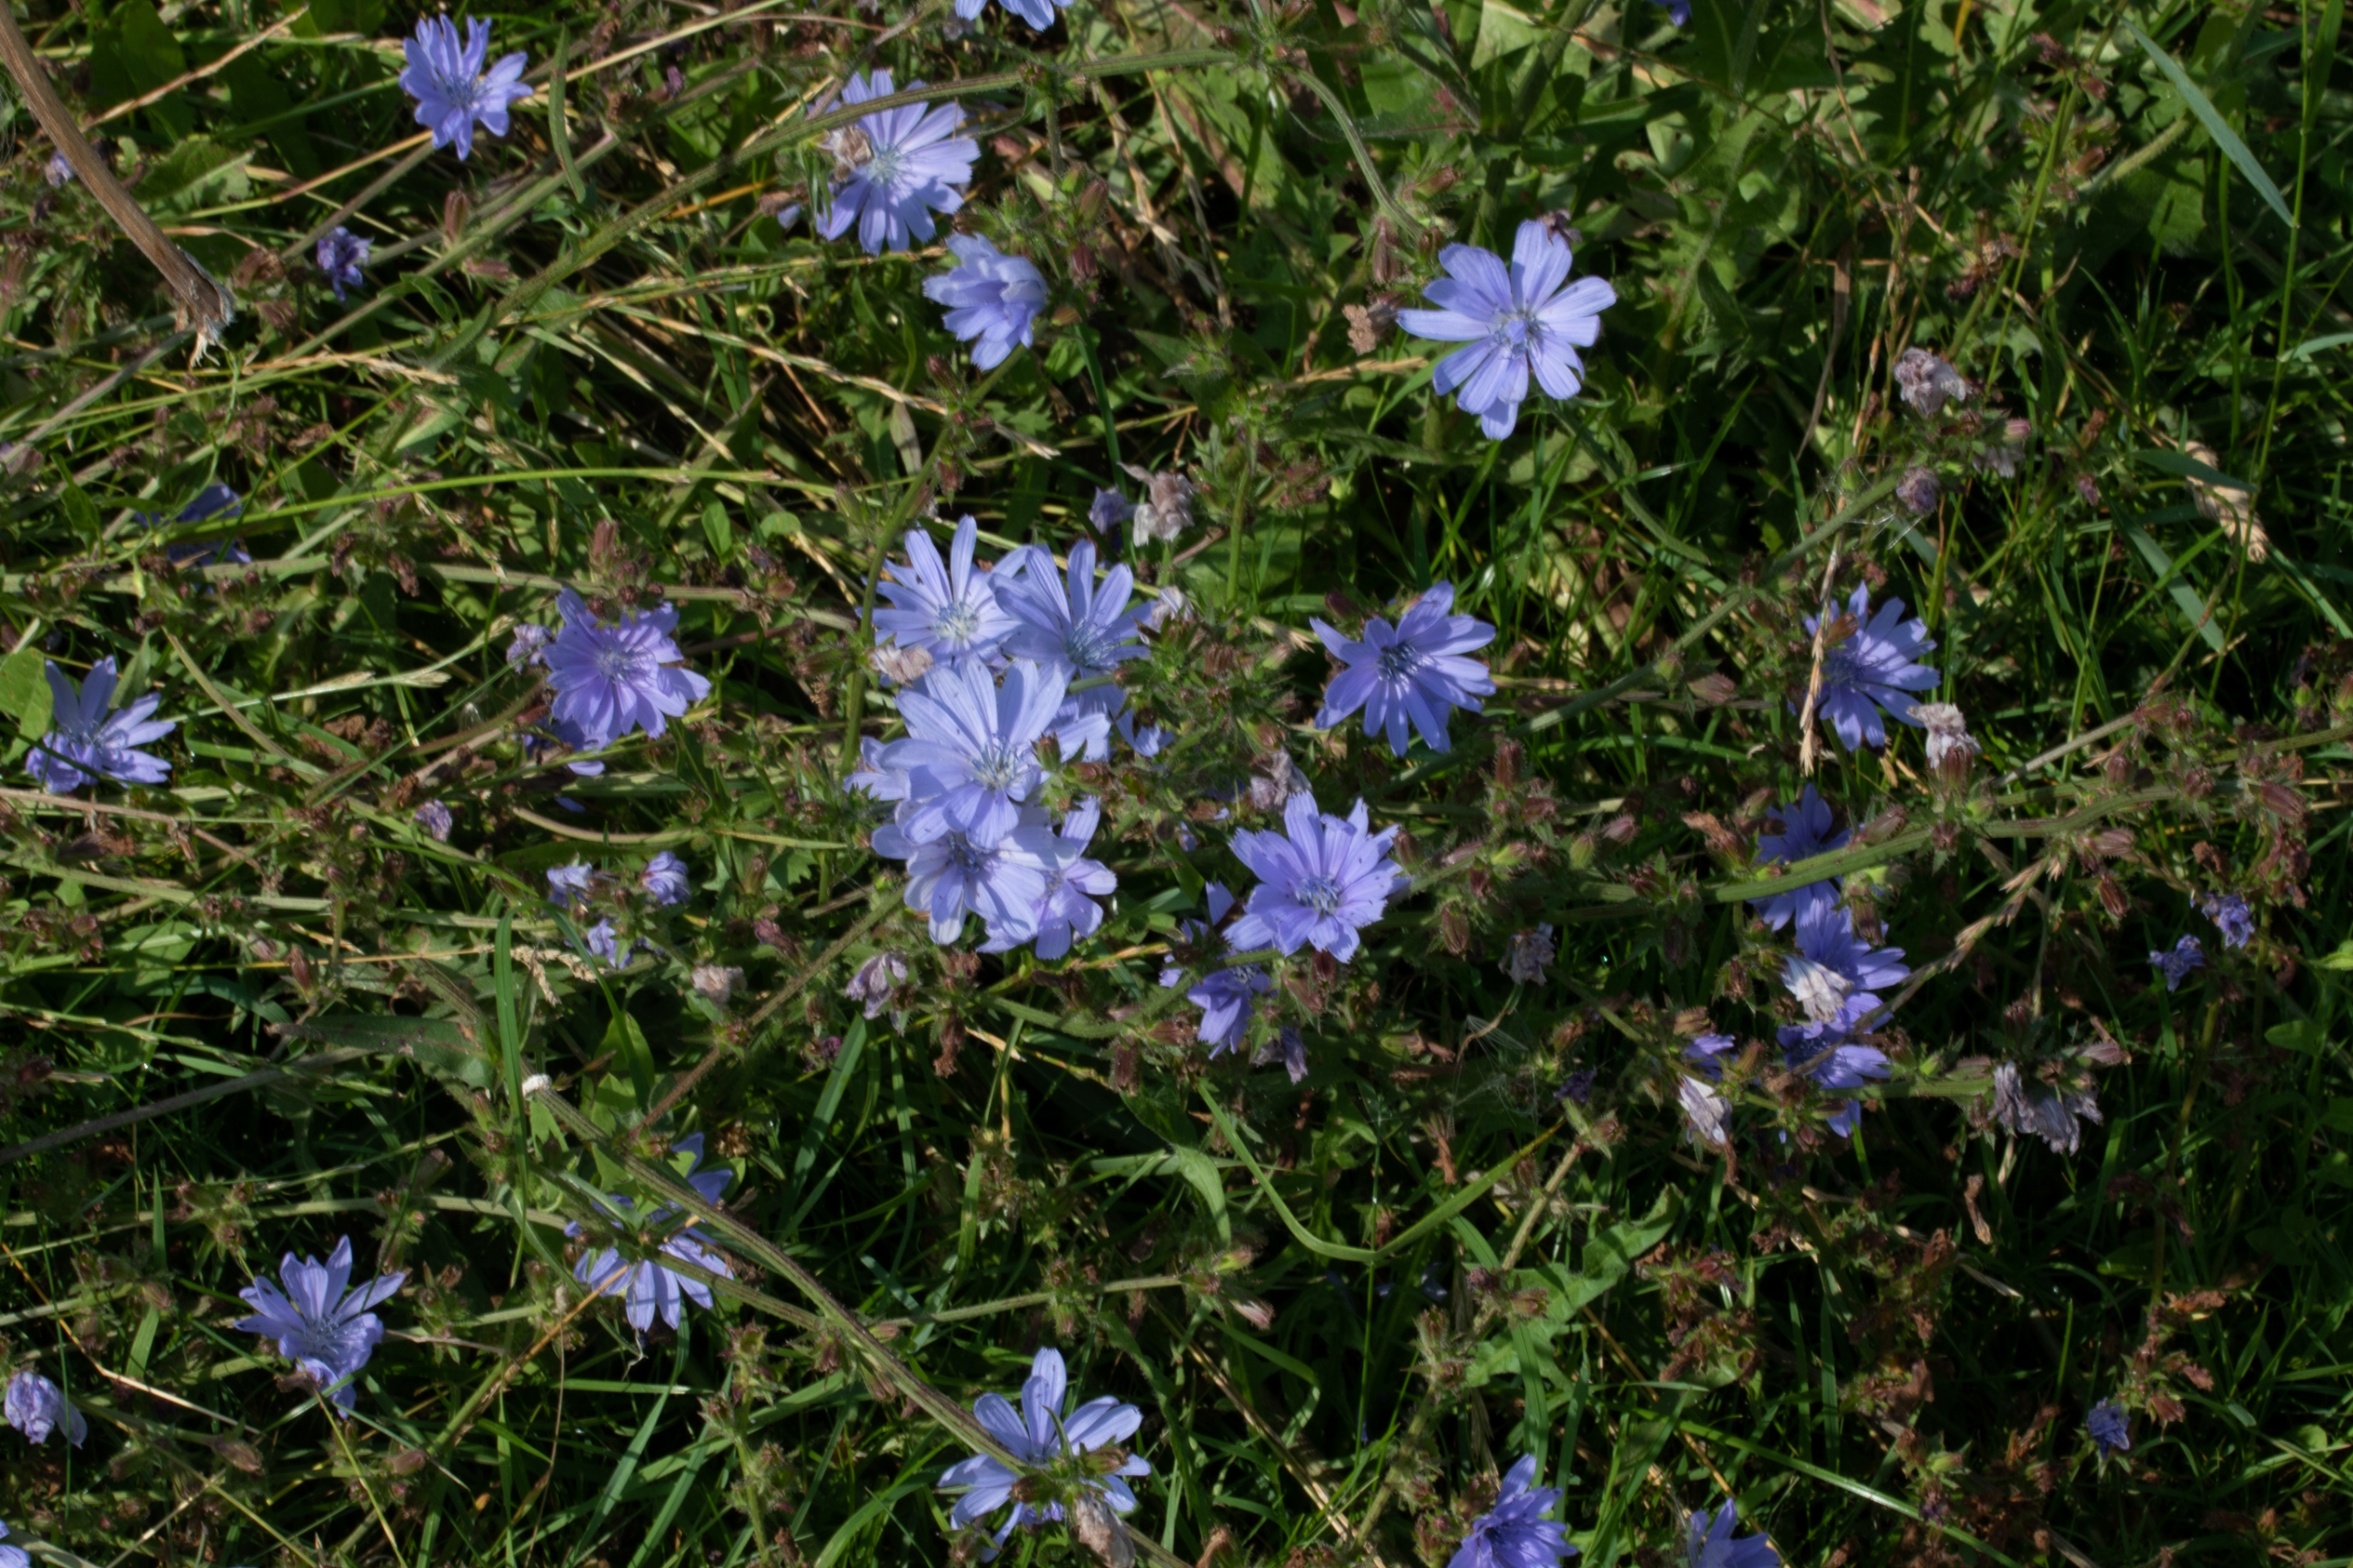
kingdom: Plantae
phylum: Tracheophyta
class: Magnoliopsida
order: Asterales
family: Asteraceae
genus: Cichorium
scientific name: Cichorium intybus
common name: Cikorie
